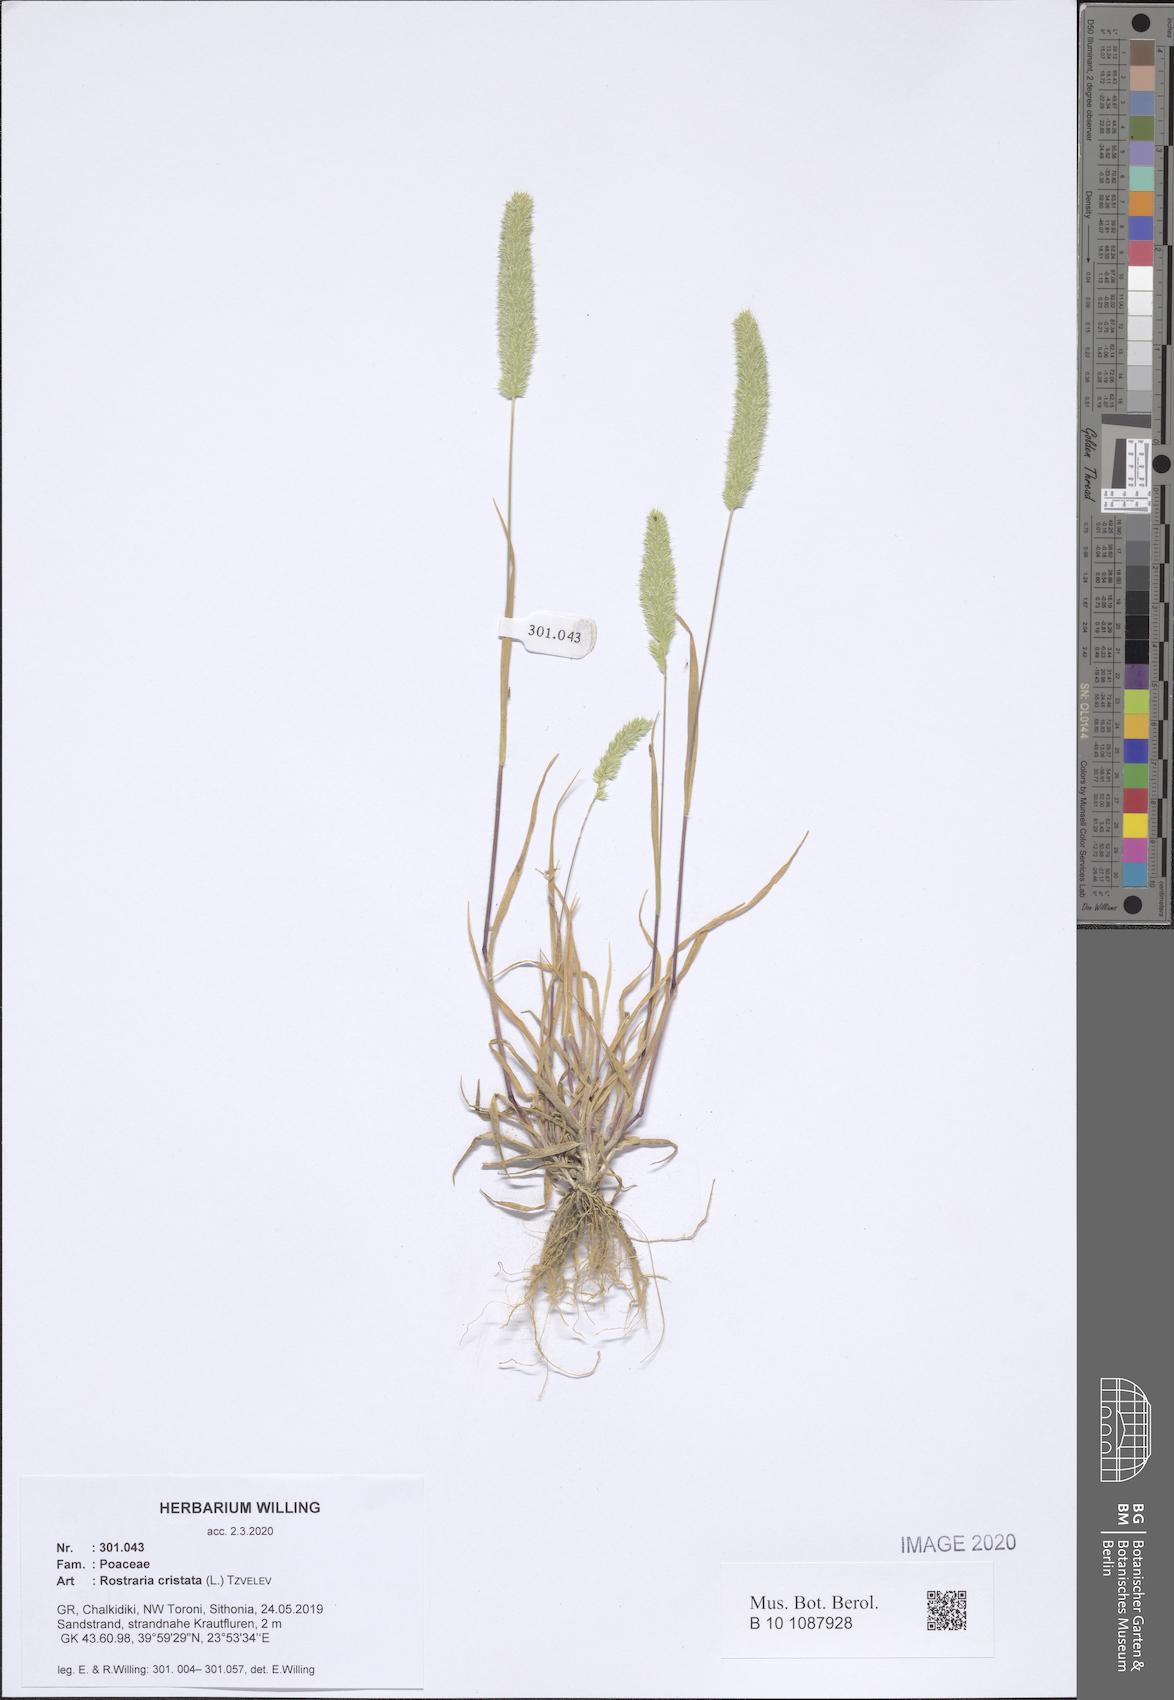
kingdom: Plantae
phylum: Tracheophyta
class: Liliopsida
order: Poales
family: Poaceae
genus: Rostraria
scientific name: Rostraria cristata
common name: Mediterranean hair-grass
